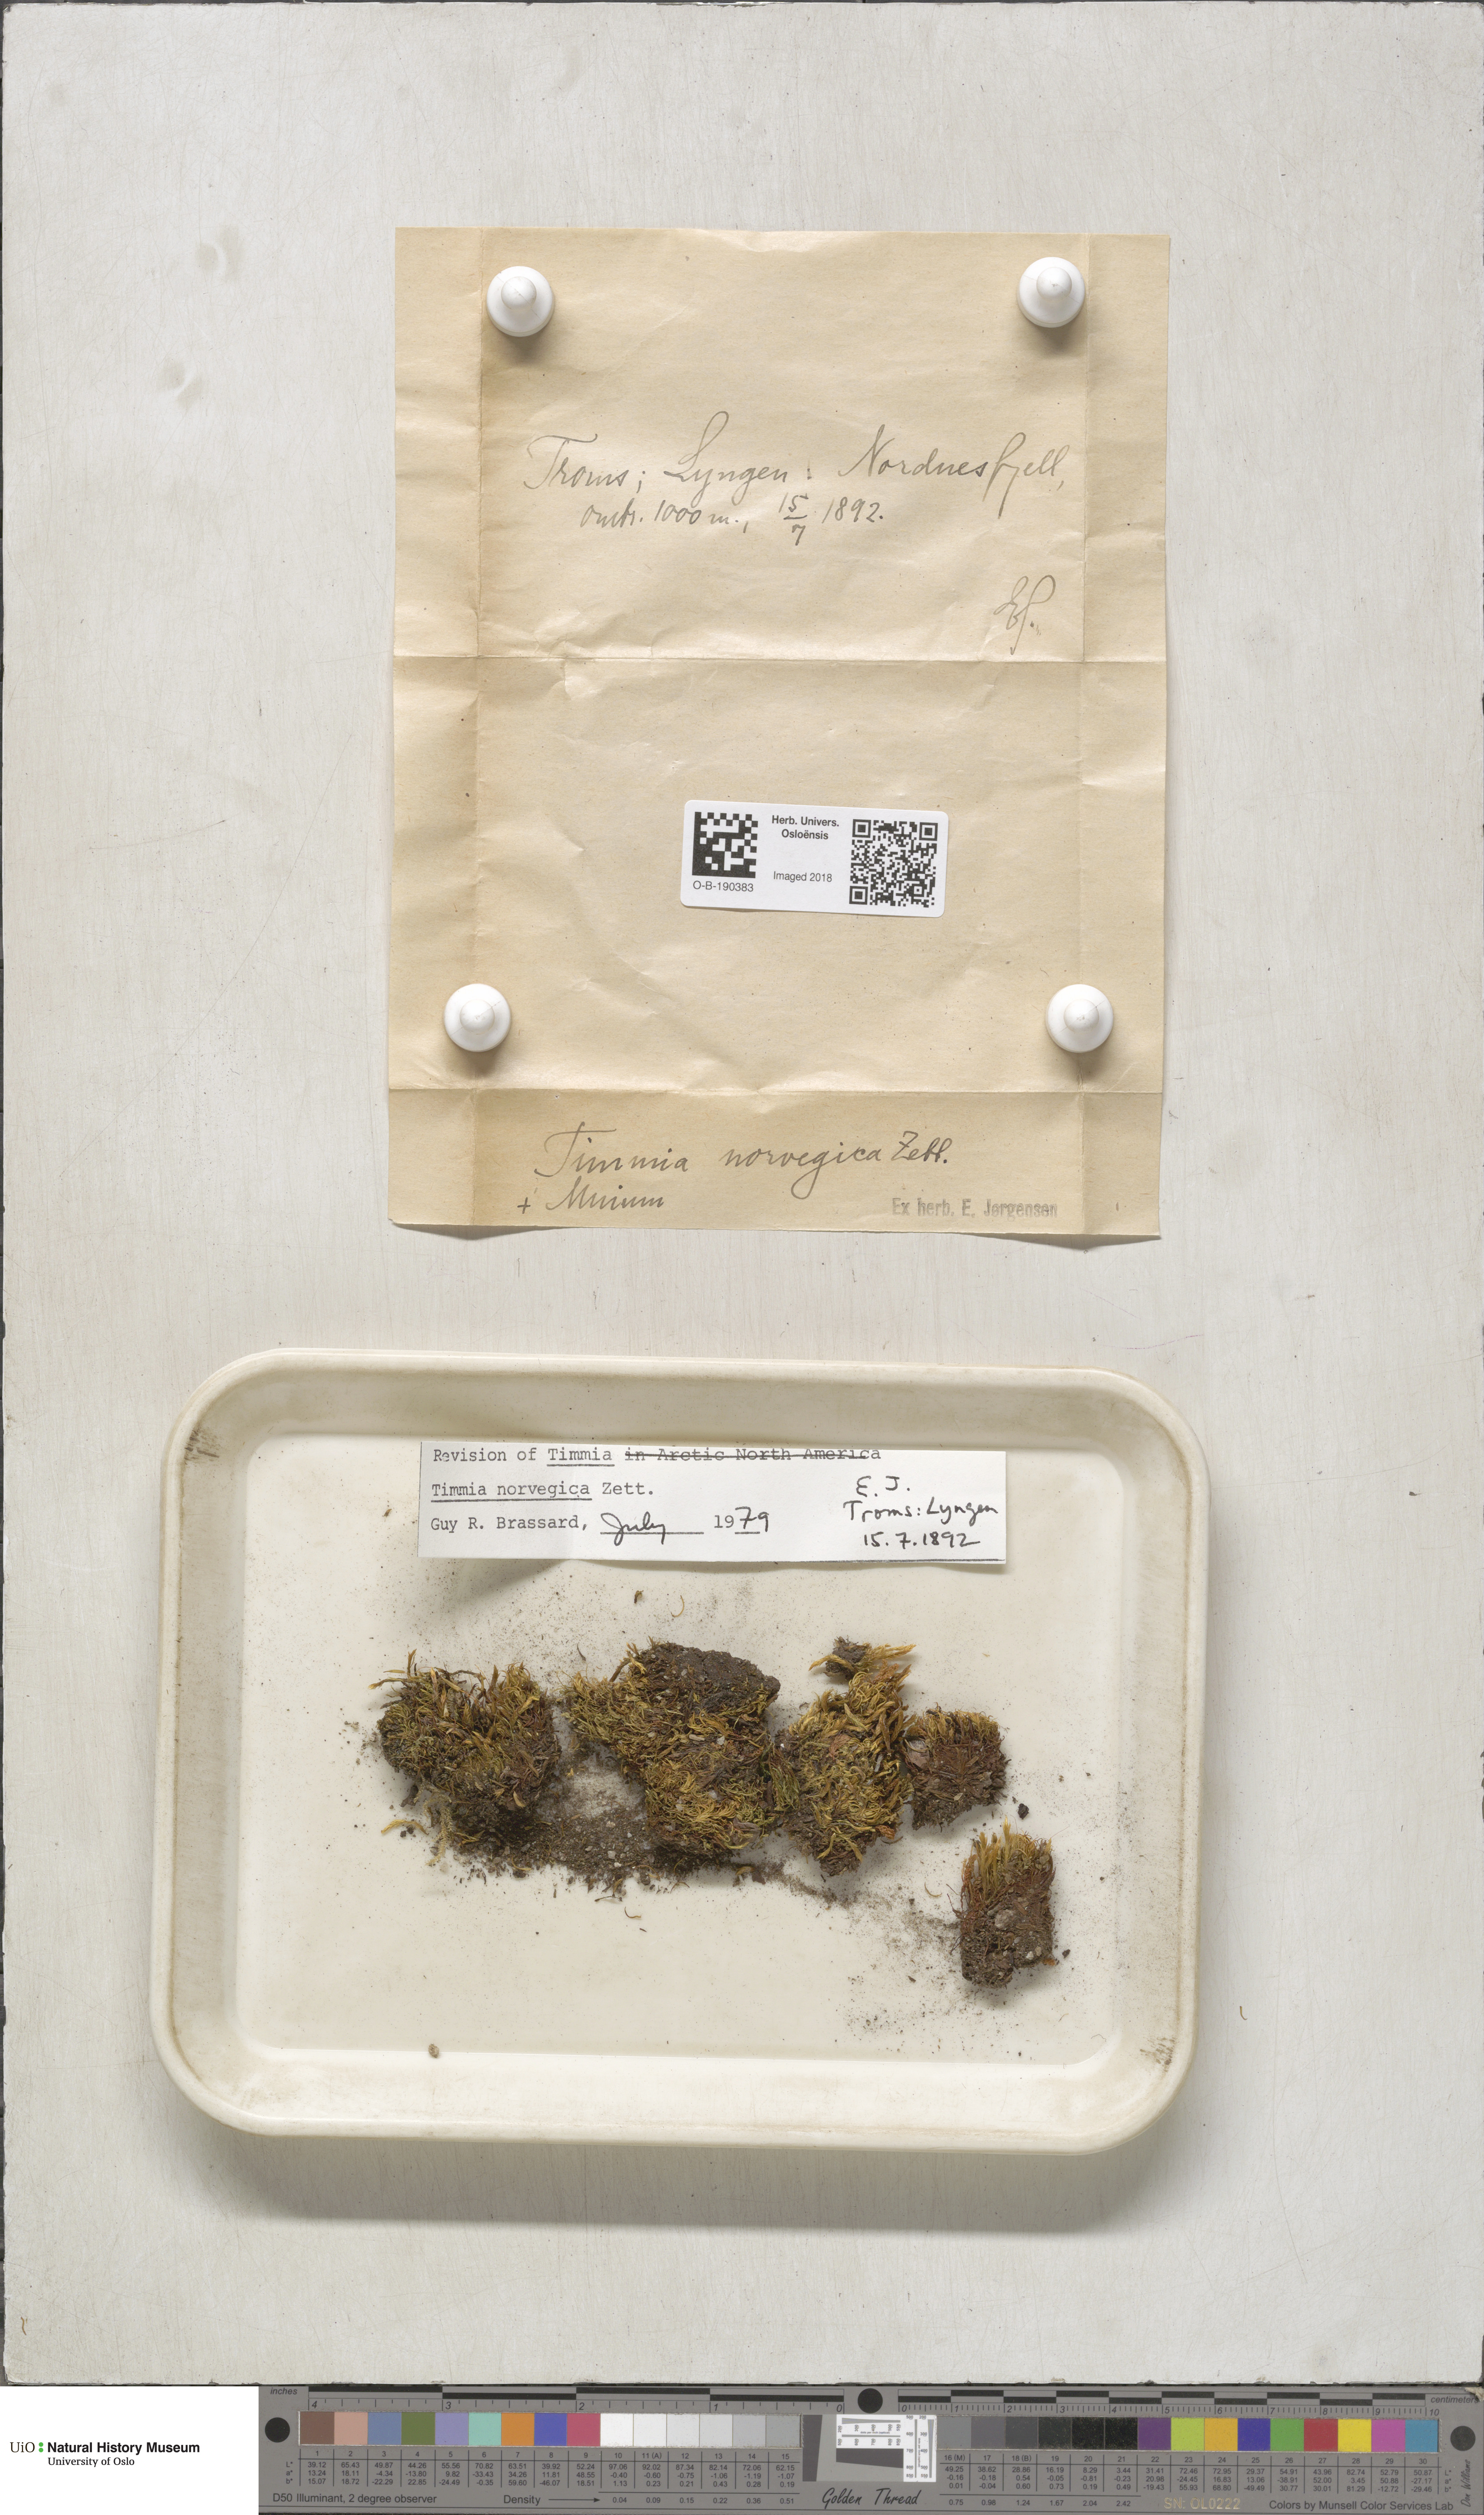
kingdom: Plantae
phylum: Bryophyta
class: Bryopsida
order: Timmiales
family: Timmiaceae
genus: Timmia
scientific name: Timmia norvegica
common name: Norway timmia
